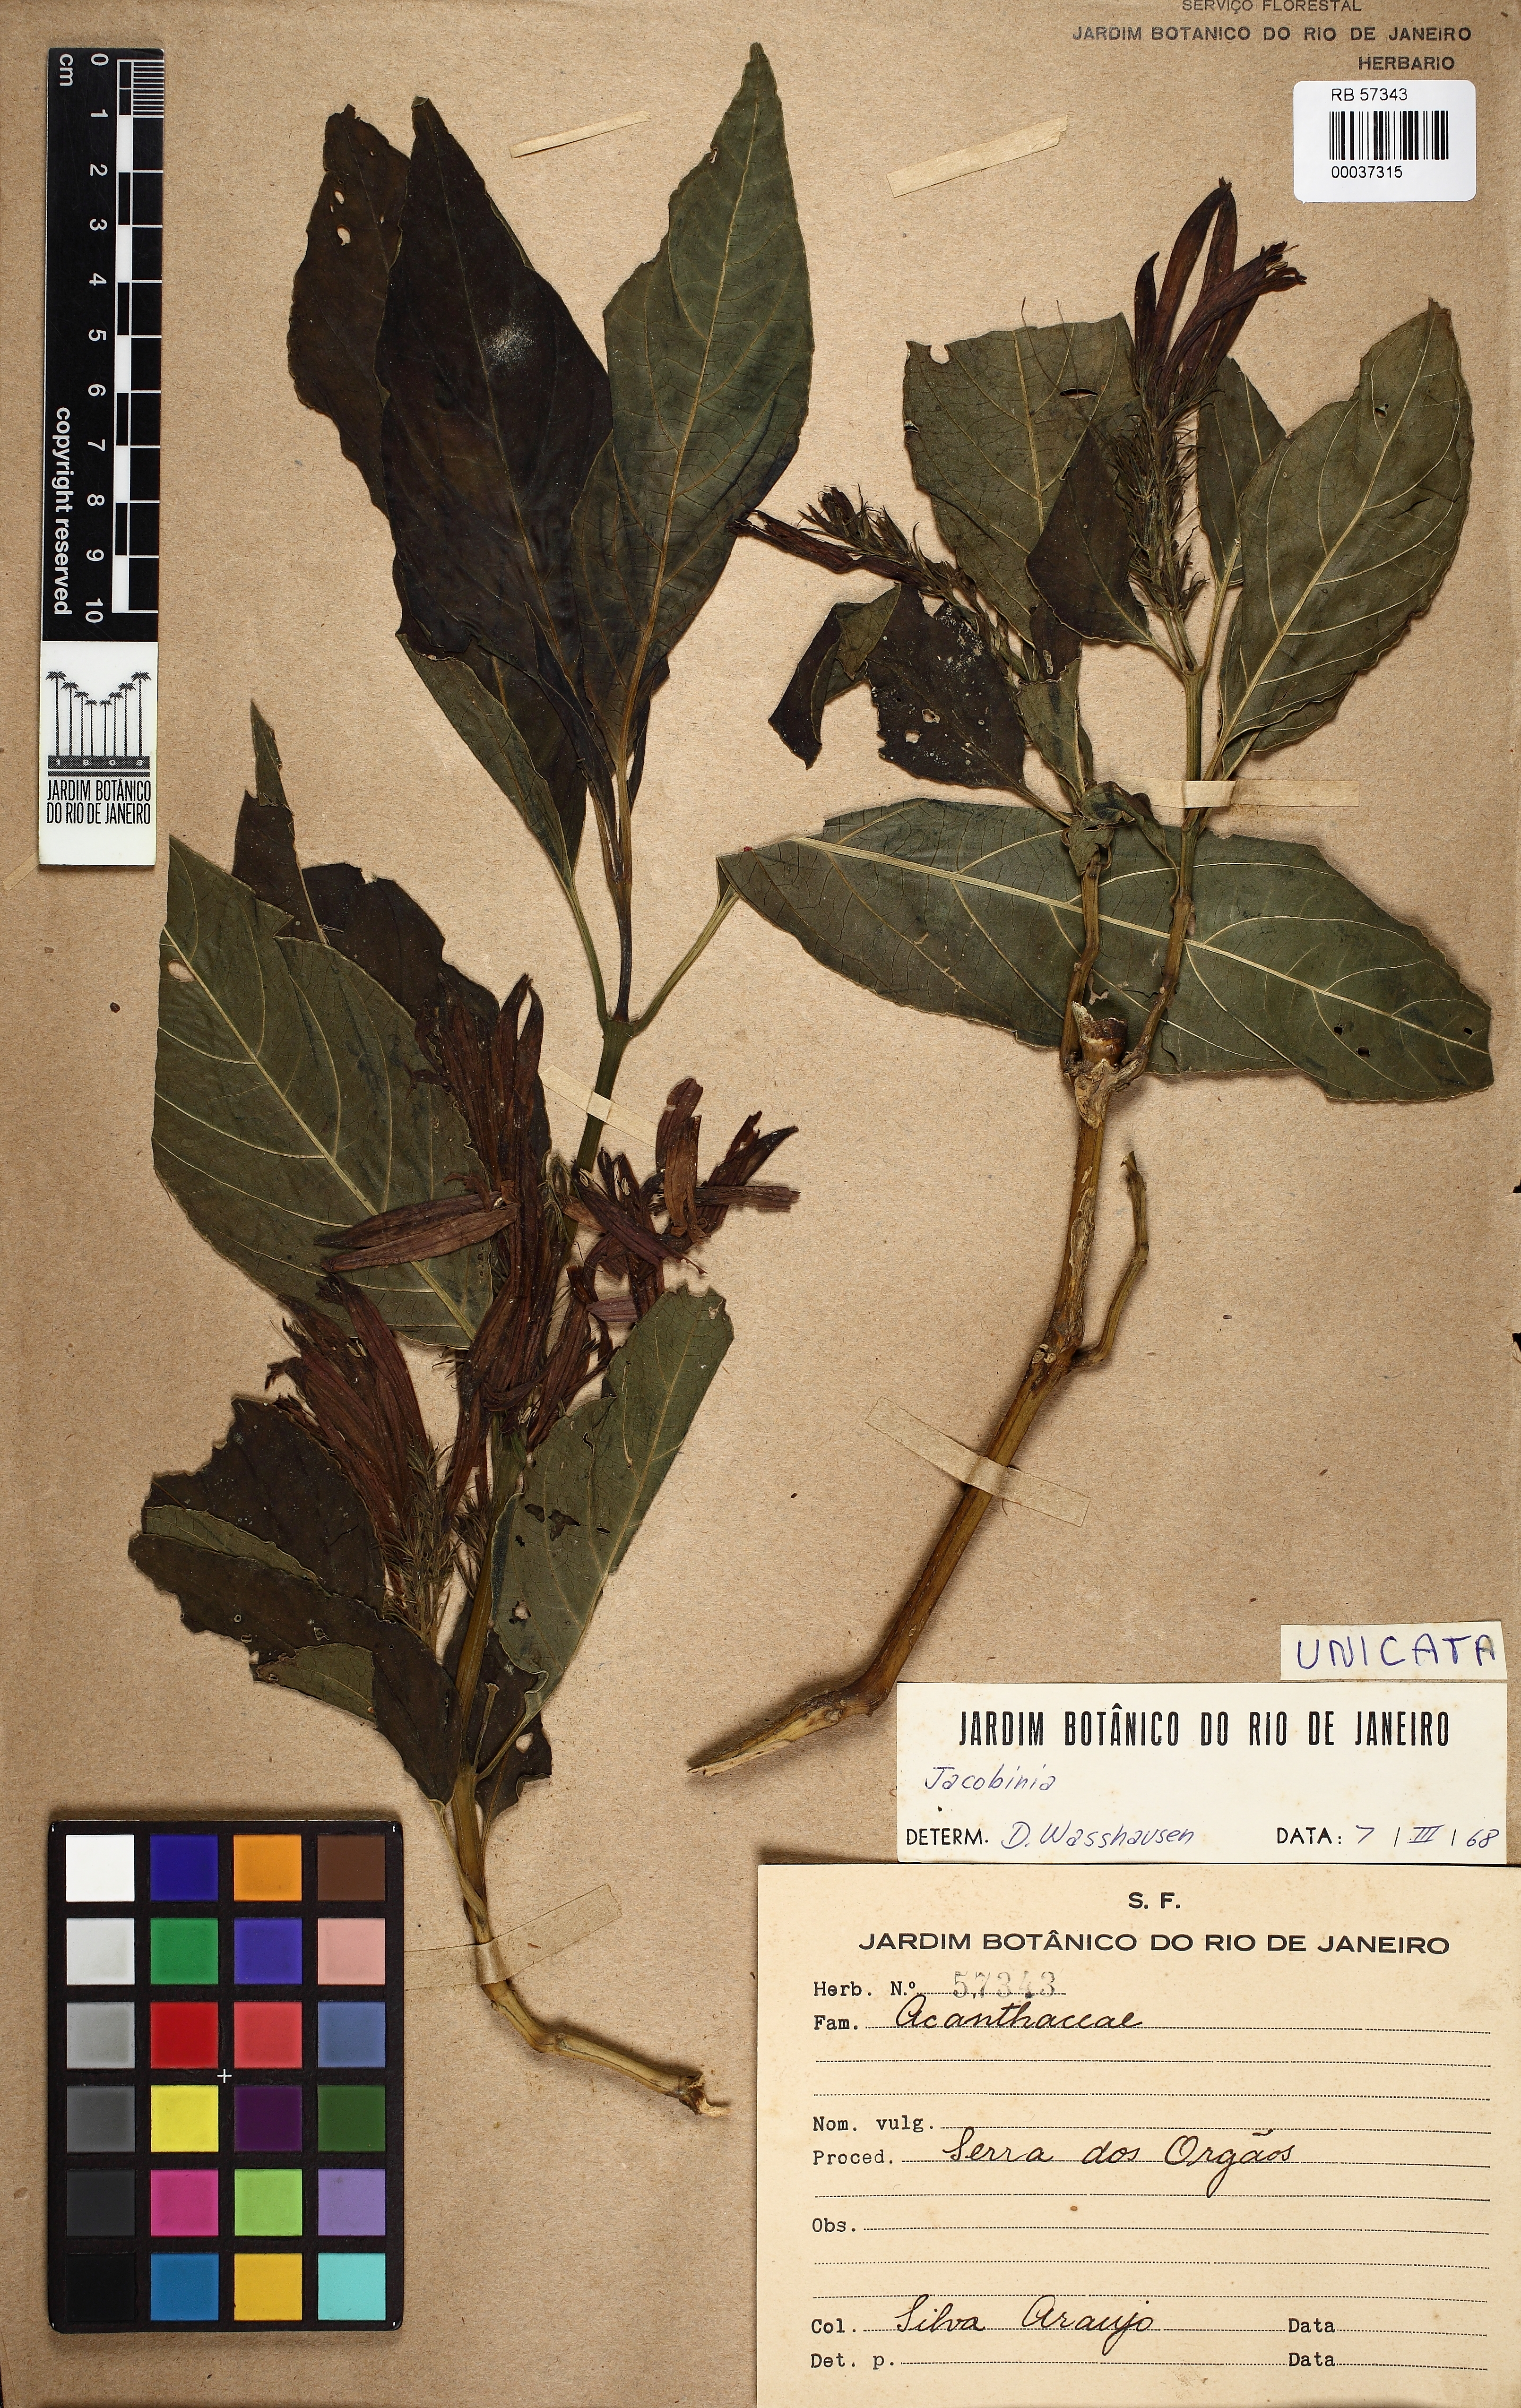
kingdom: Plantae
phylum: Tracheophyta
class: Magnoliopsida
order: Lamiales
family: Acanthaceae
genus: Justicia
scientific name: Justicia
